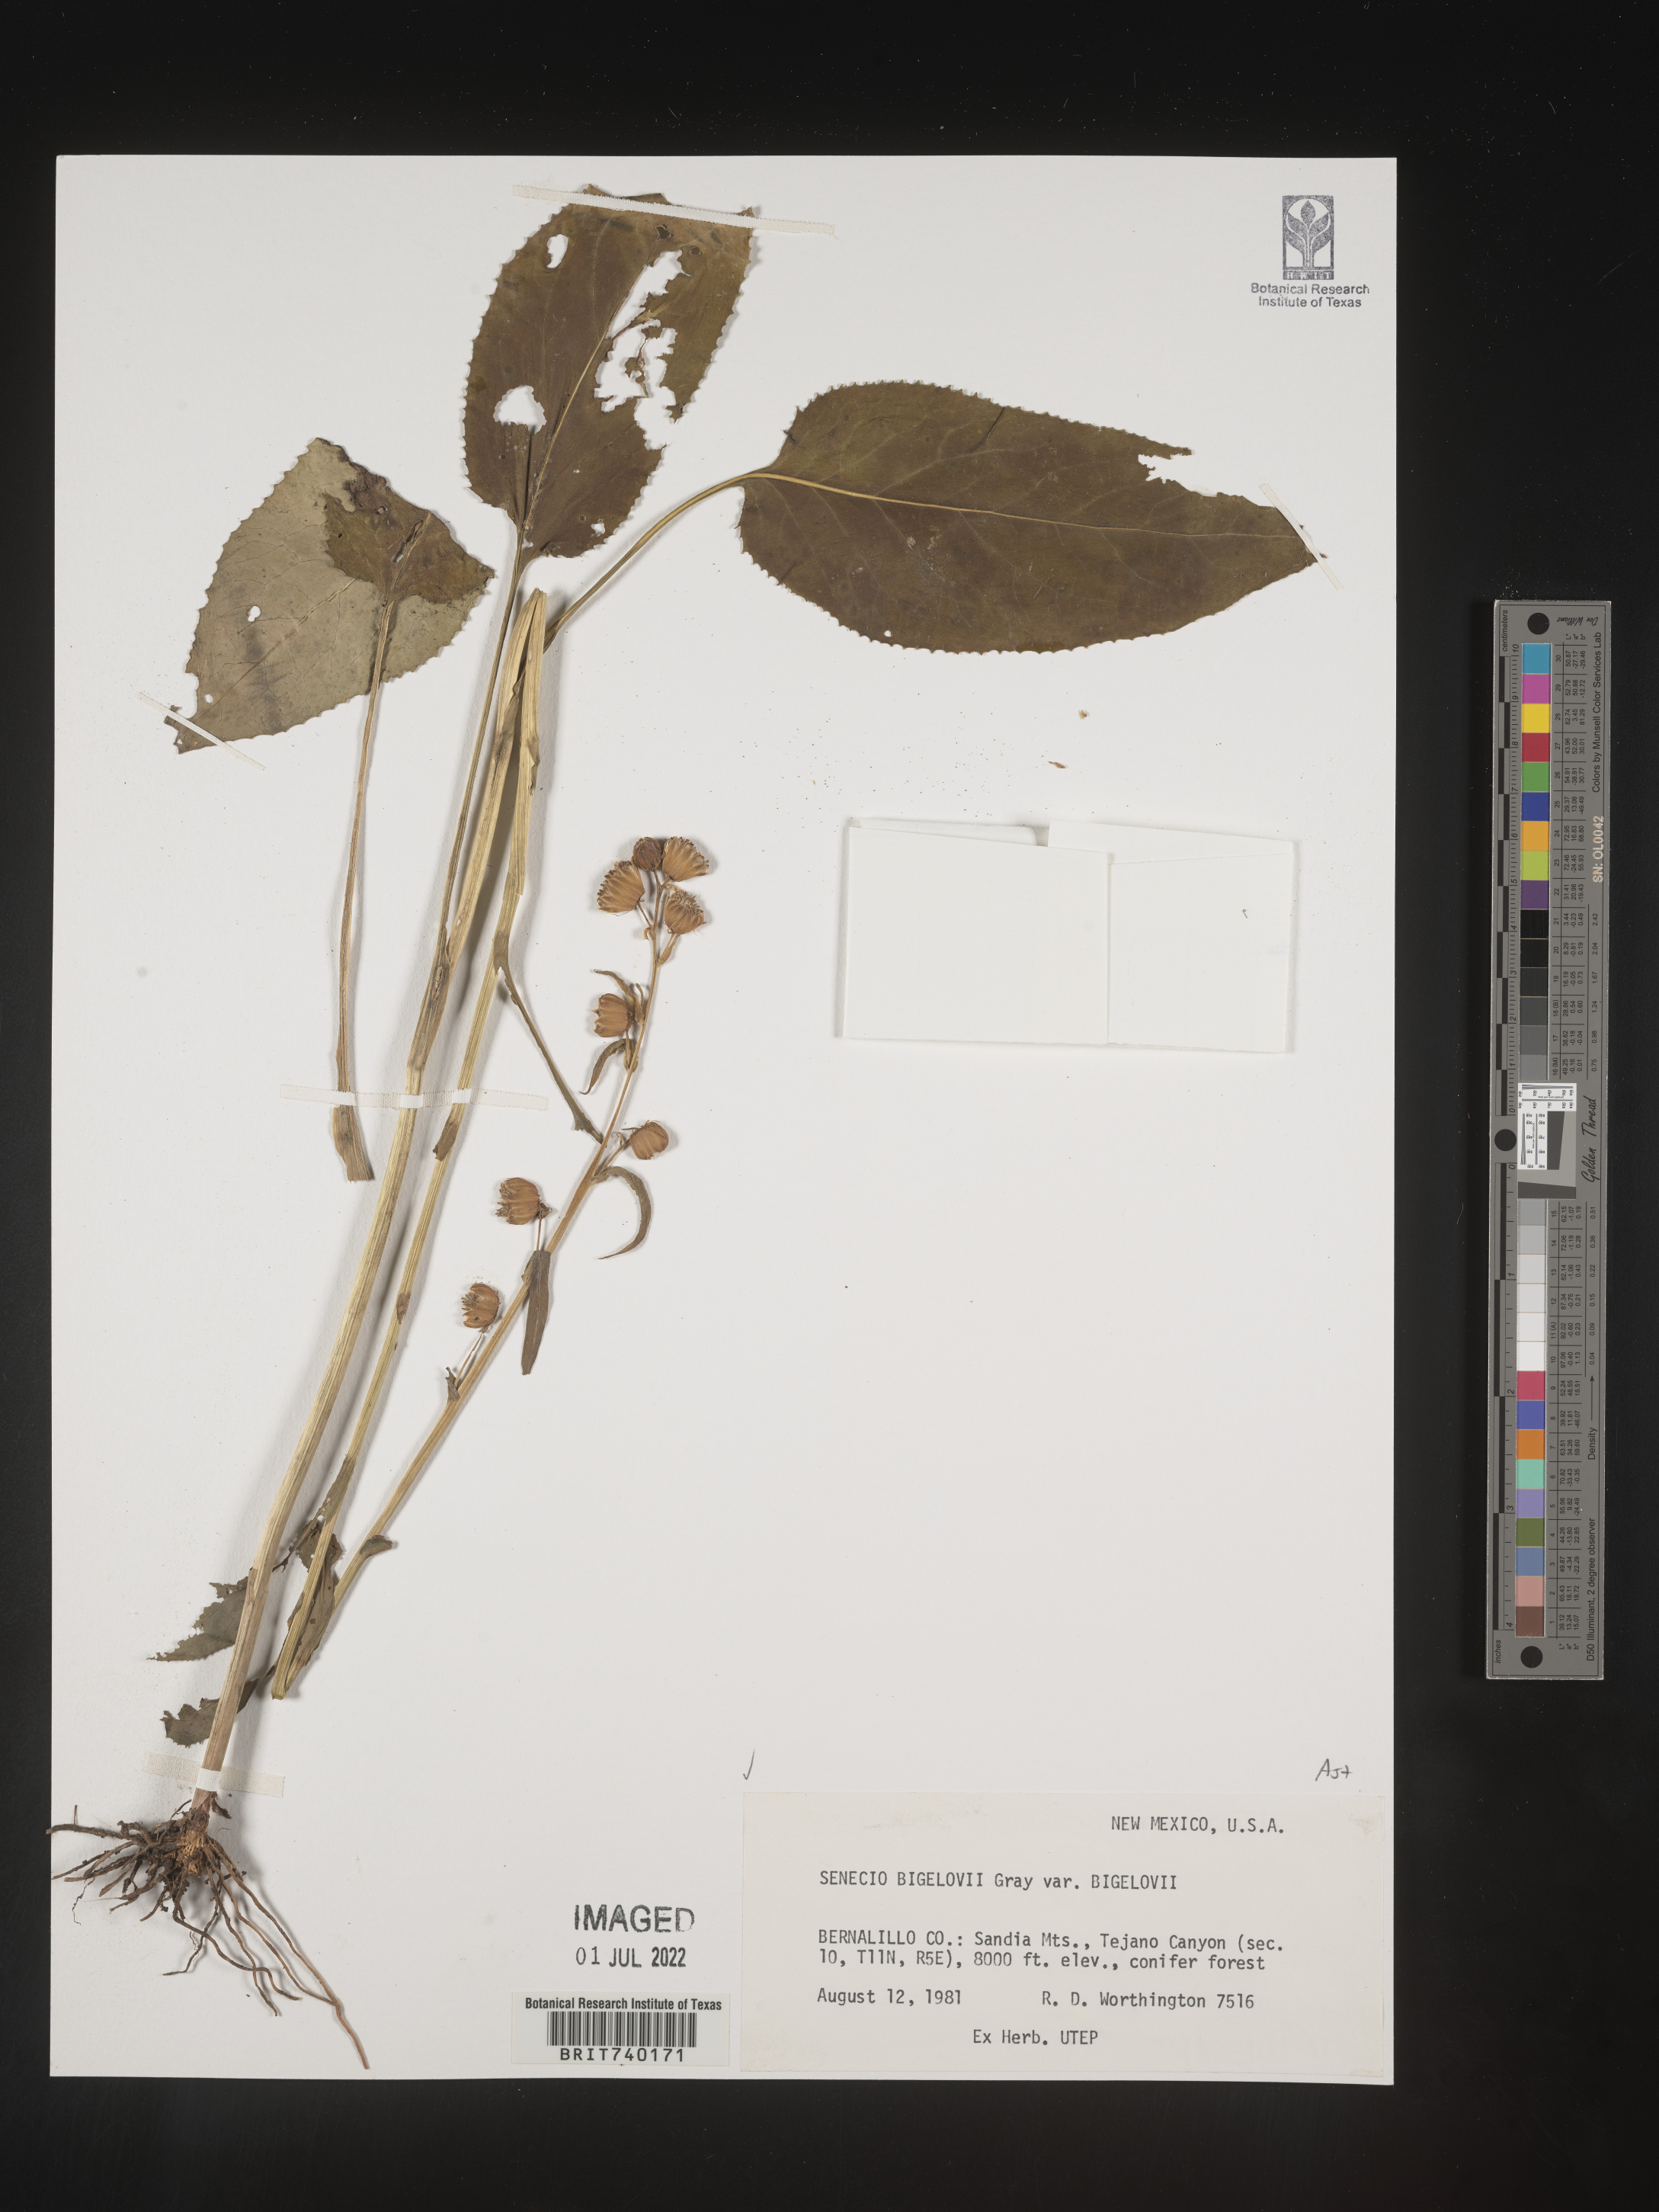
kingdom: Plantae
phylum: Tracheophyta
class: Magnoliopsida
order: Asterales
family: Asteraceae
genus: Senecio
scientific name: Senecio bigelovii
